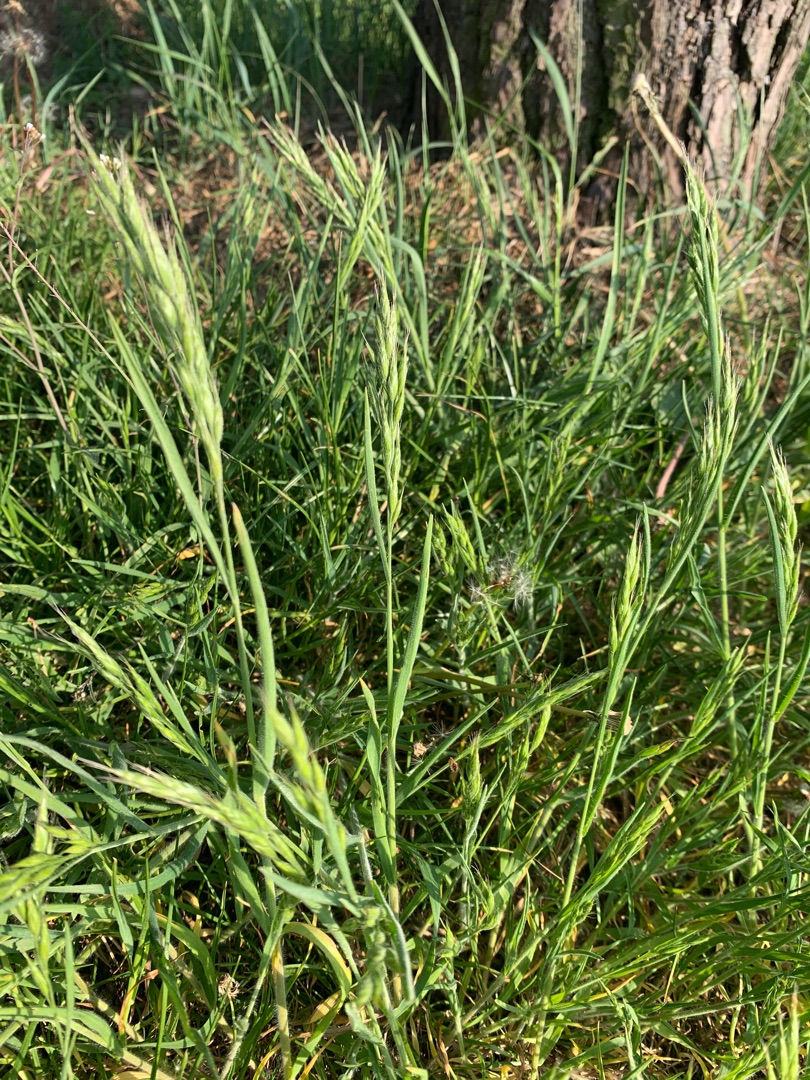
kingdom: Plantae
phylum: Tracheophyta
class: Liliopsida
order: Poales
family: Poaceae
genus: Bromus
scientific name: Bromus hordeaceus
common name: Blød hejre
